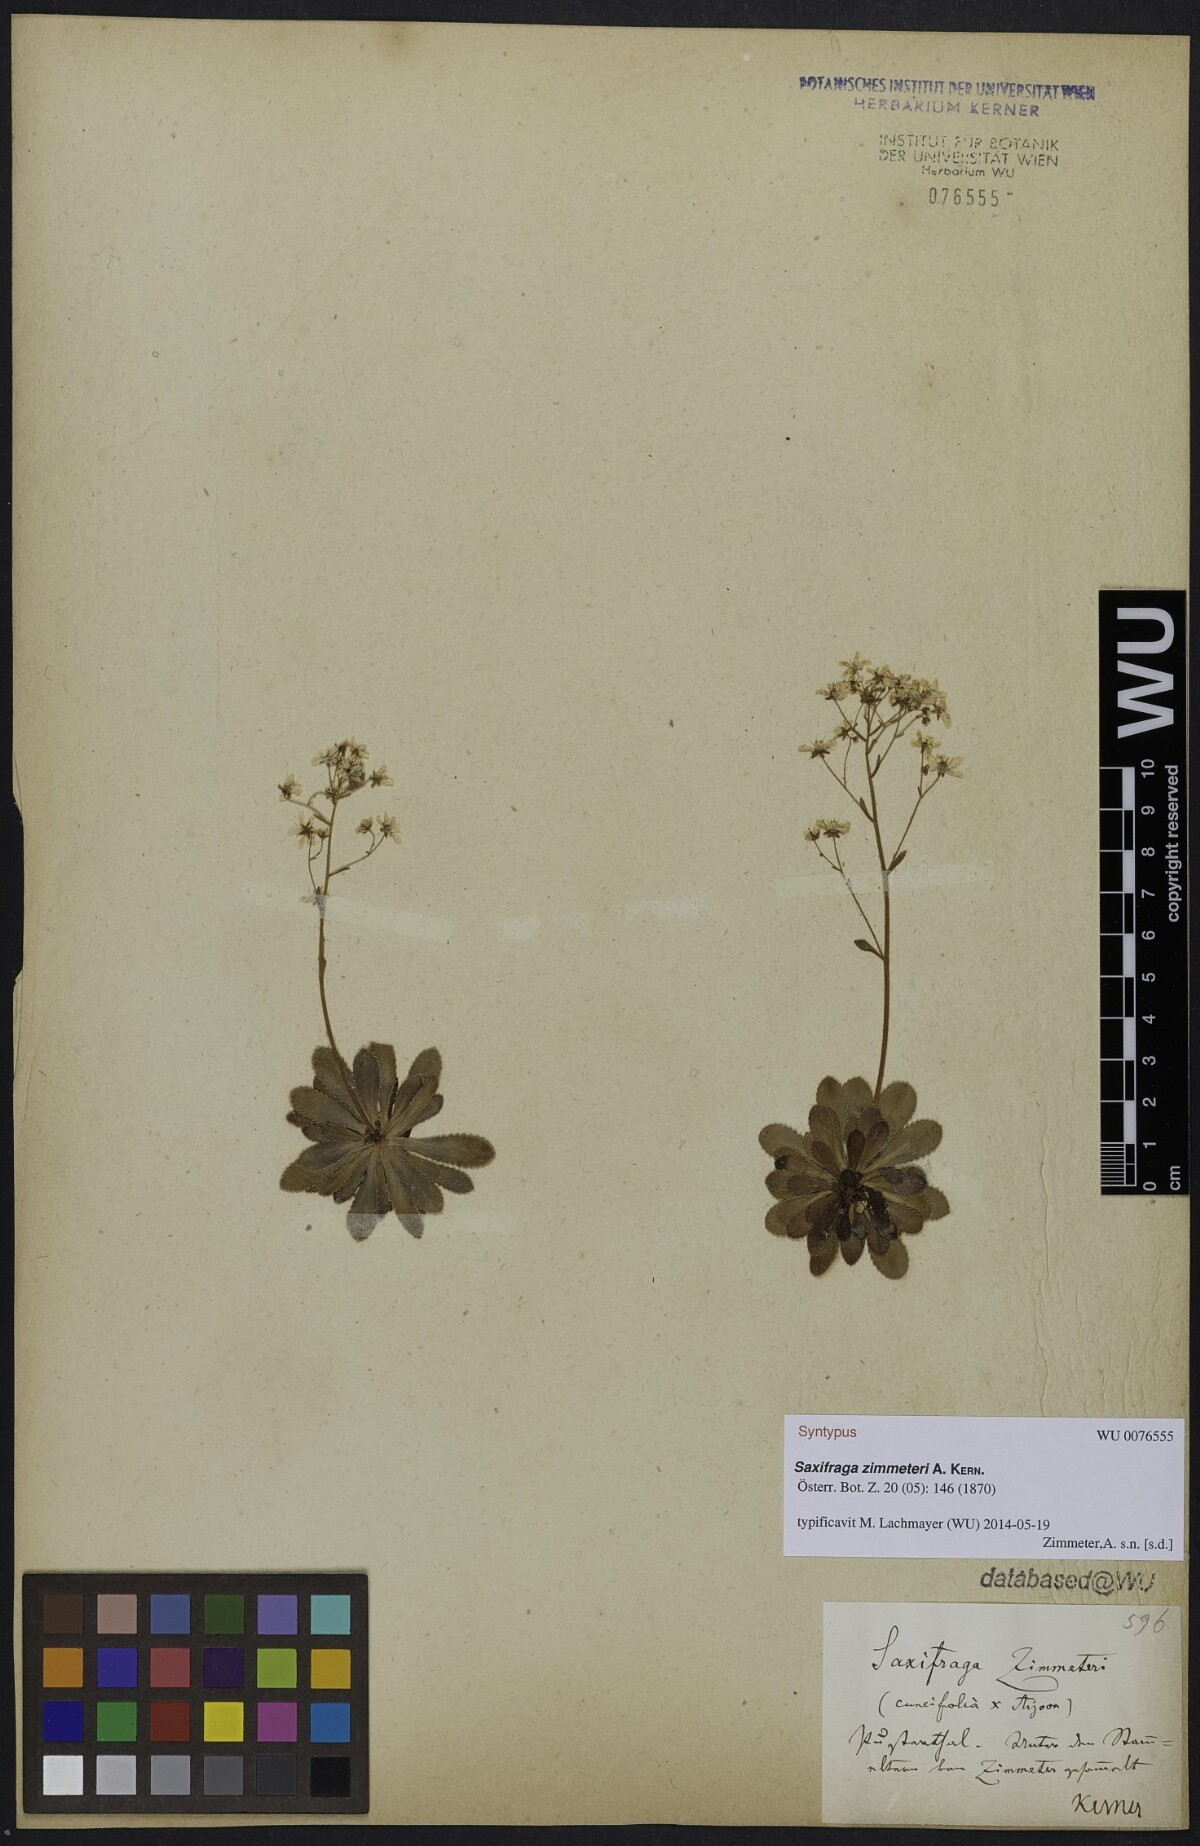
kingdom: Plantae
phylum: Tracheophyta
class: Magnoliopsida
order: Saxifragales
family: Saxifragaceae
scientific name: Saxifragaceae
